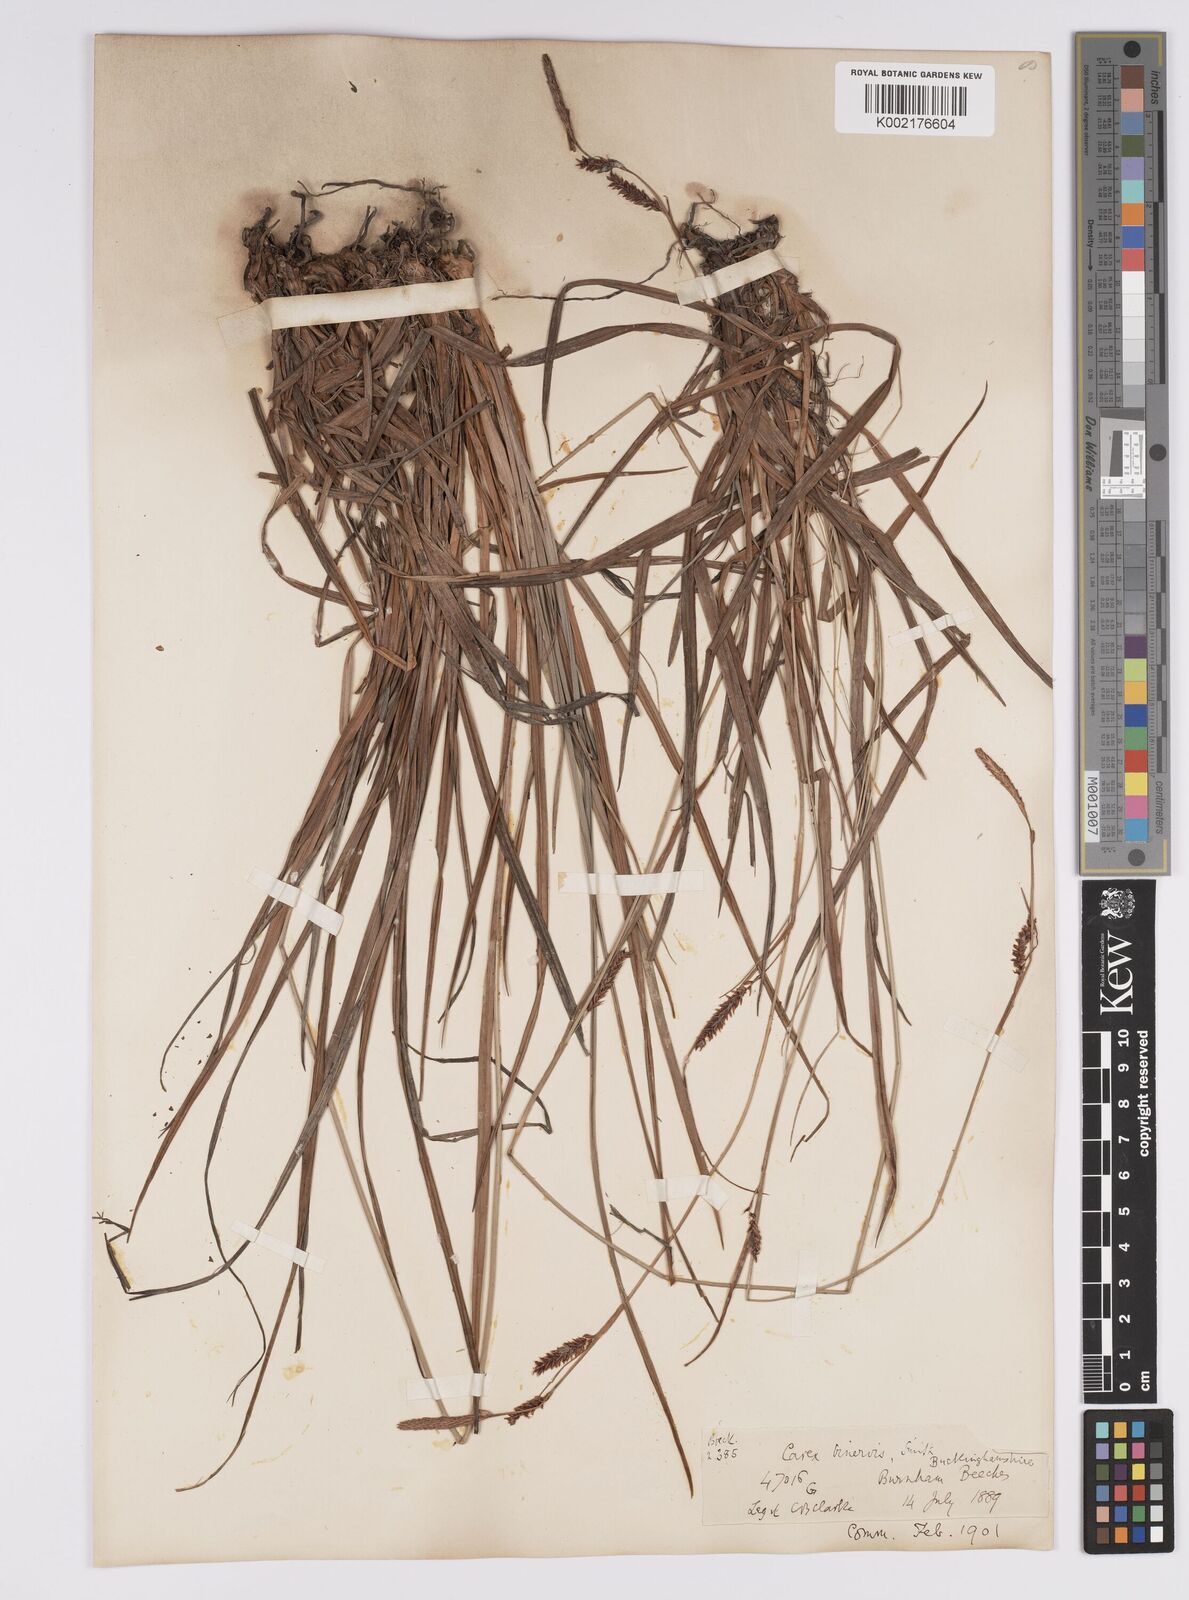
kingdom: Plantae
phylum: Tracheophyta
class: Liliopsida
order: Poales
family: Cyperaceae
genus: Carex
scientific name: Carex binervis
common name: Green-ribbed sedge
